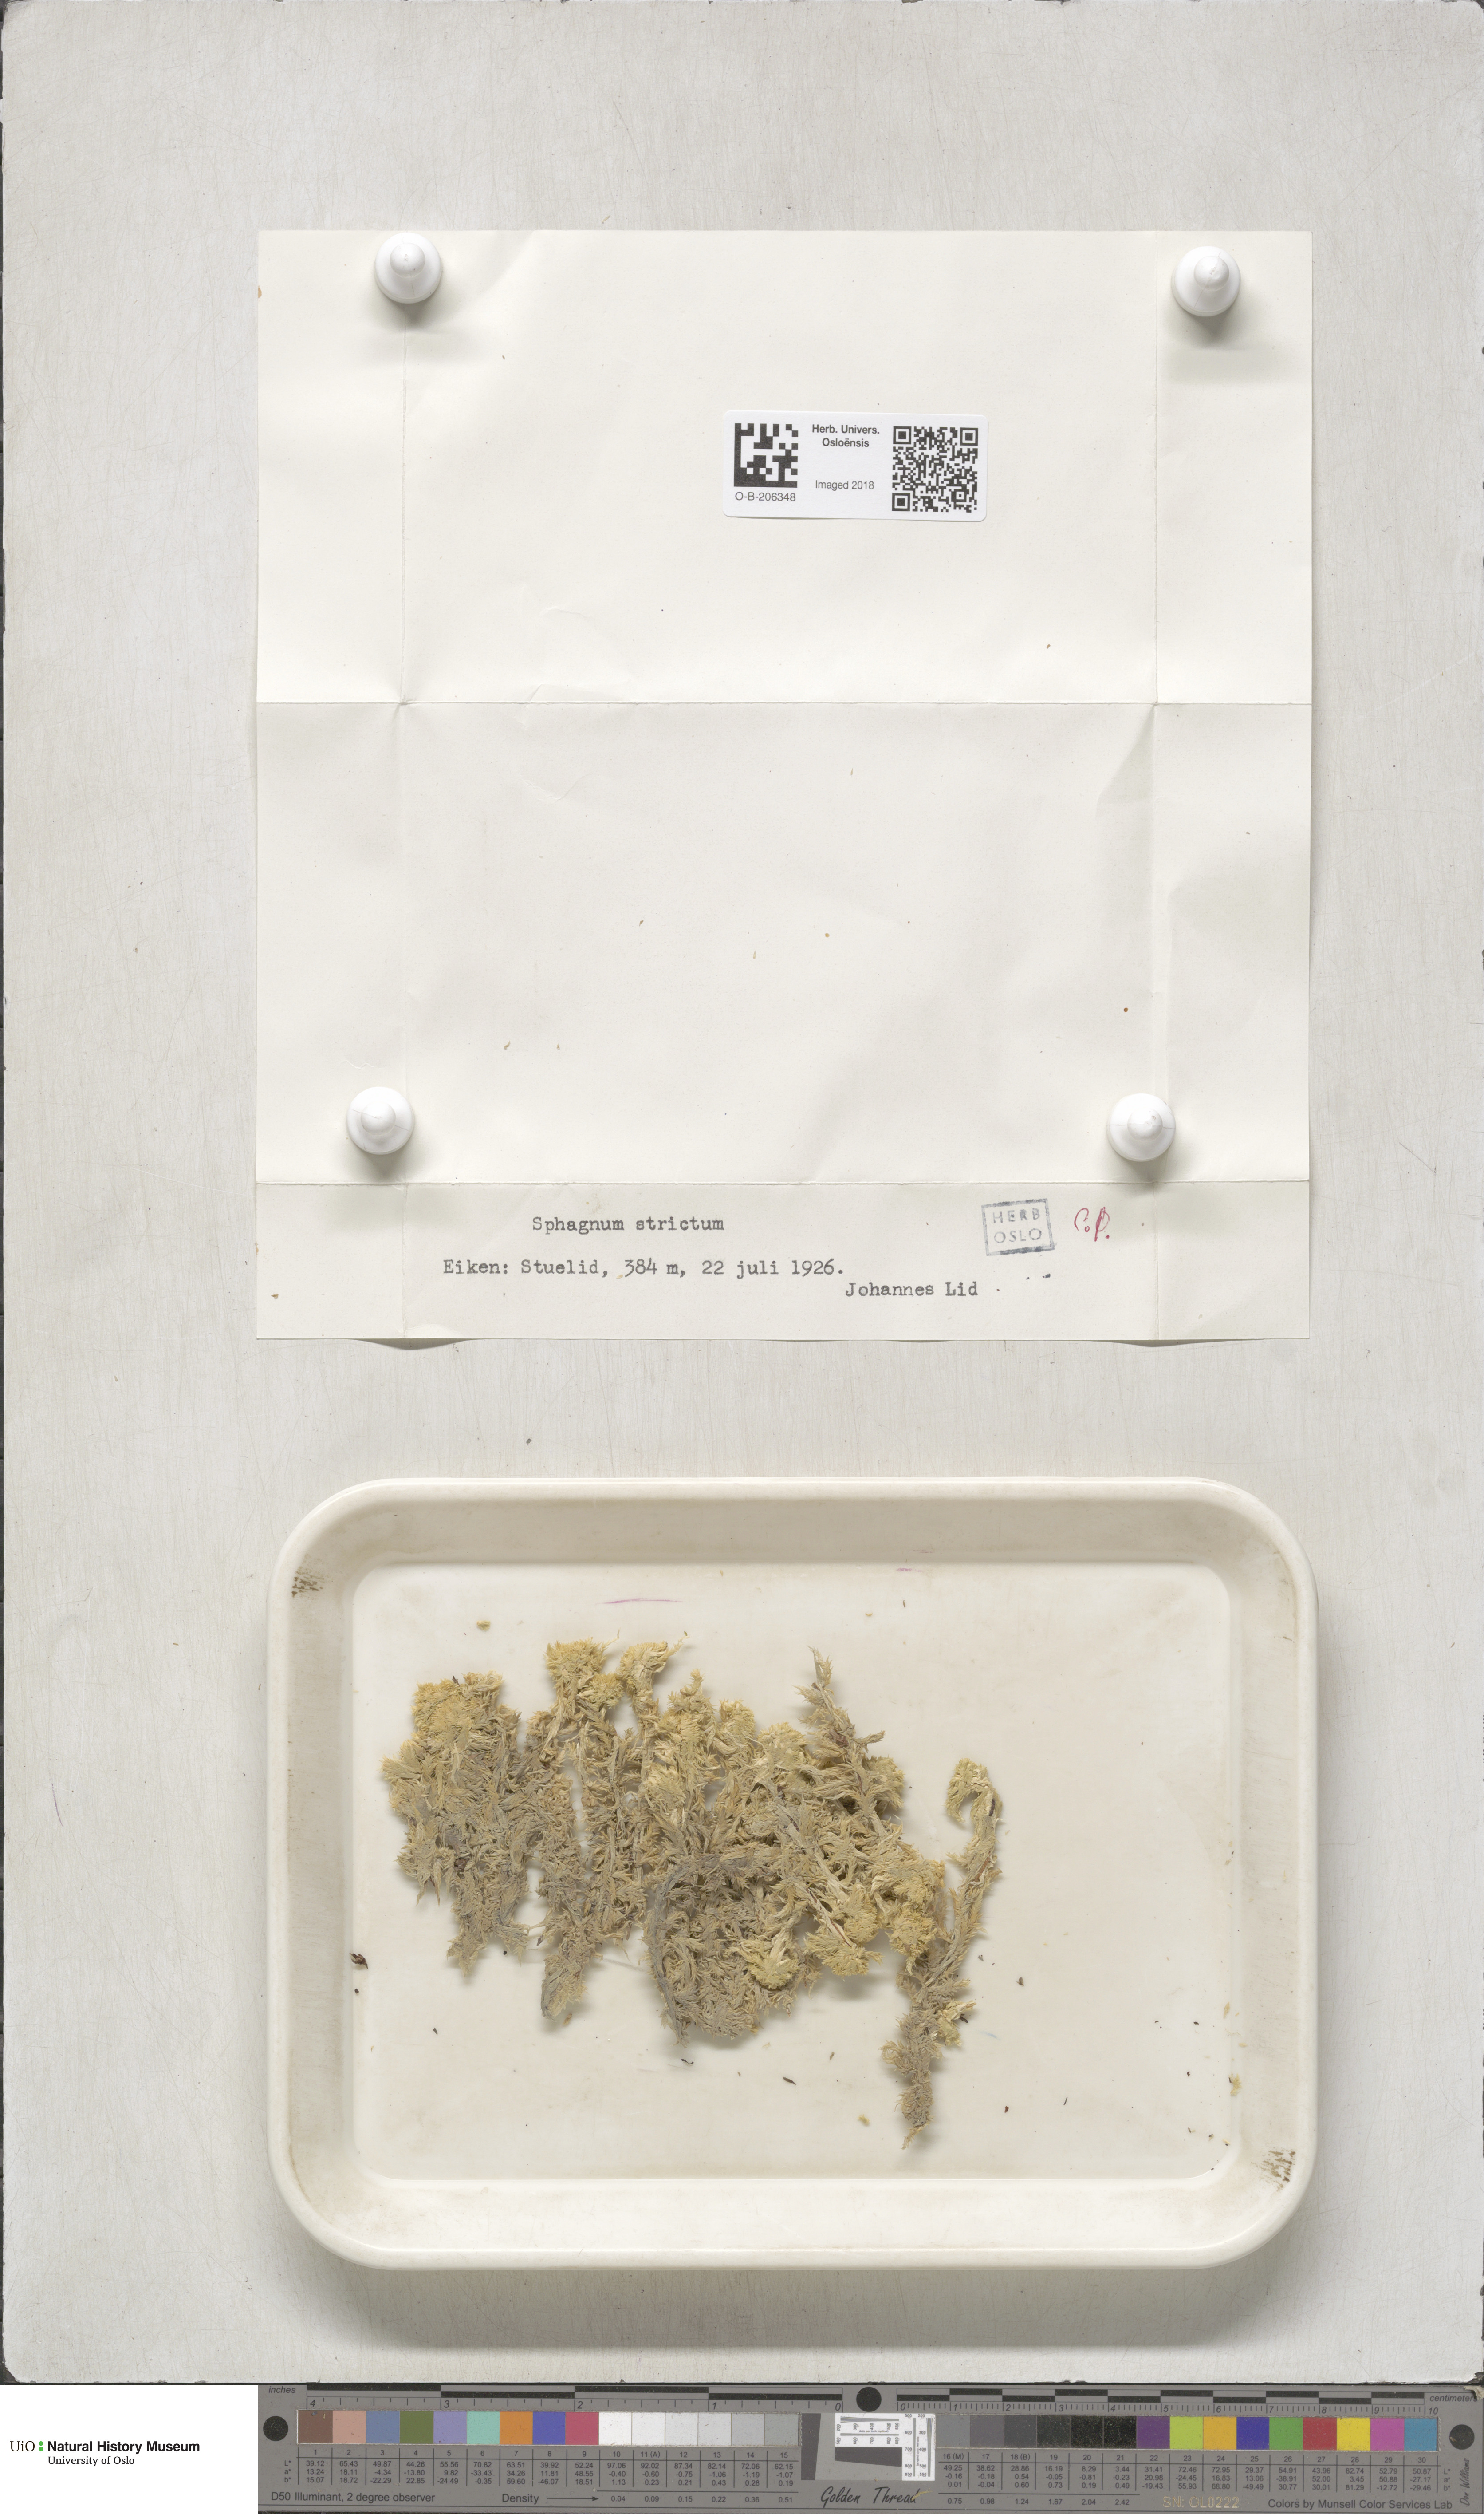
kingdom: Plantae
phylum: Bryophyta
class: Sphagnopsida
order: Sphagnales
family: Sphagnaceae
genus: Sphagnum
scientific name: Sphagnum strictum
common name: Pale bog-moss
